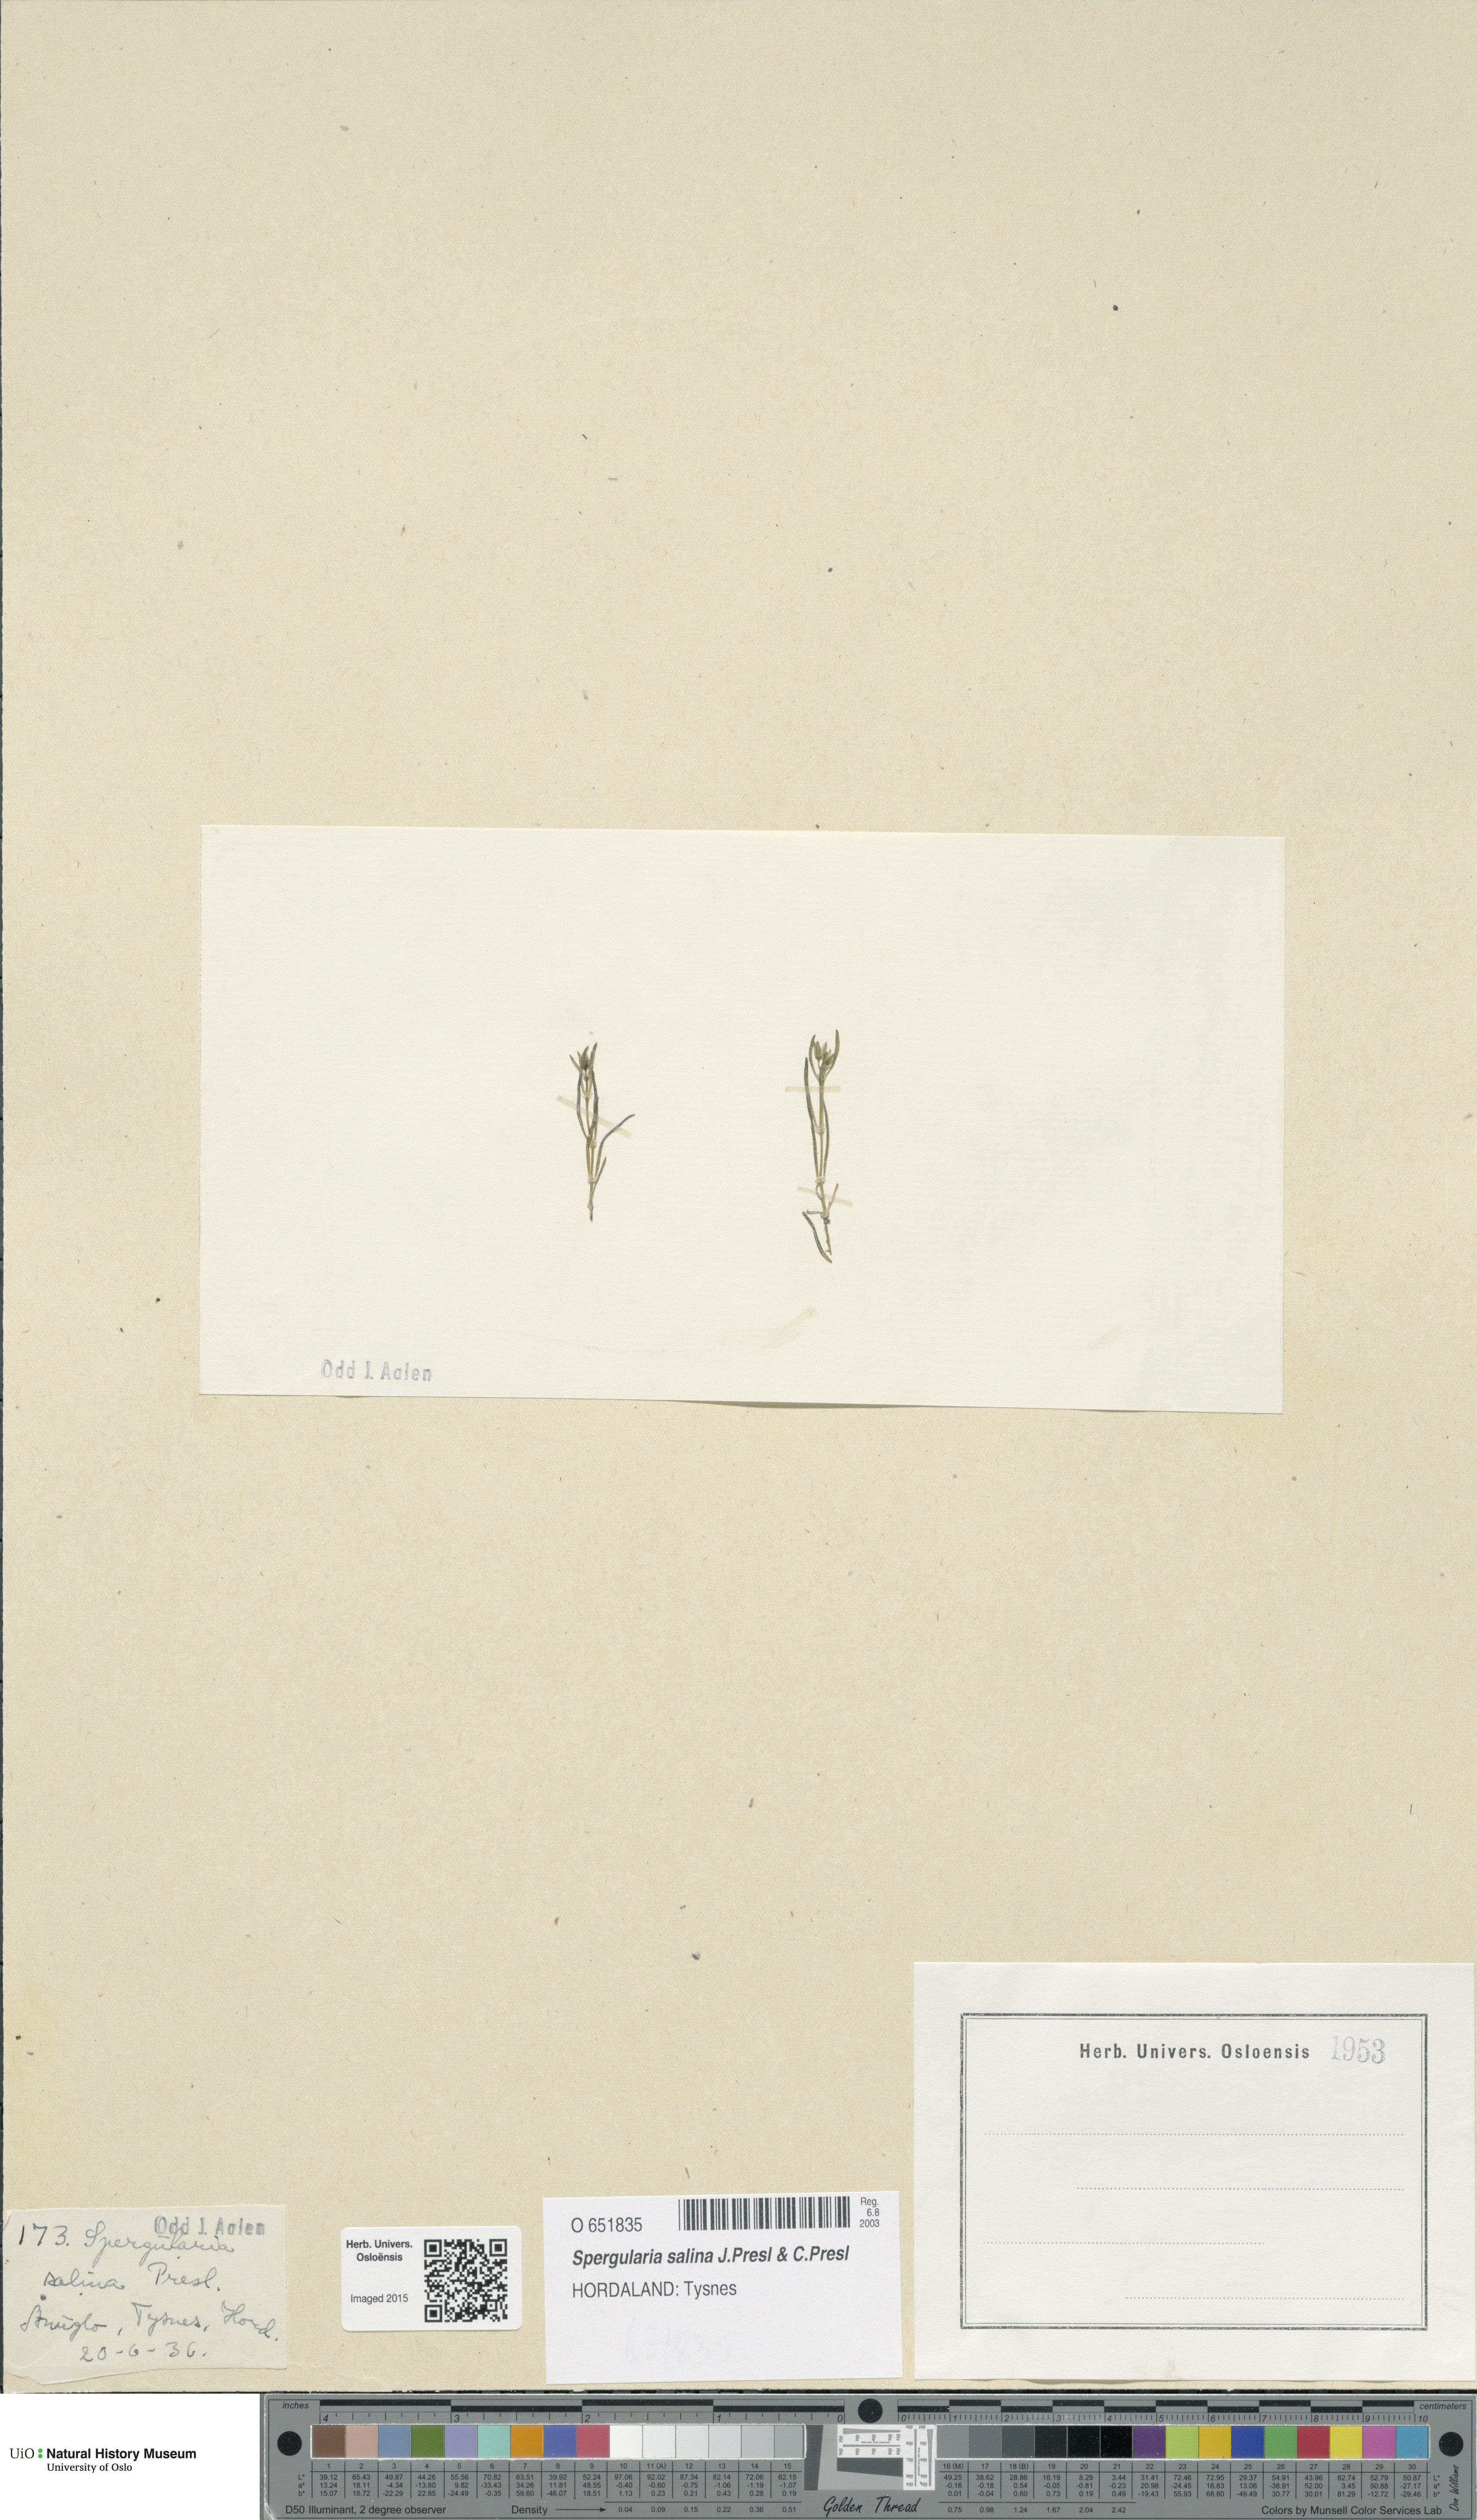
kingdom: Plantae
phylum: Tracheophyta
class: Magnoliopsida
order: Caryophyllales
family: Caryophyllaceae
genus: Spergularia
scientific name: Spergularia marina
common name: Lesser sea-spurrey
